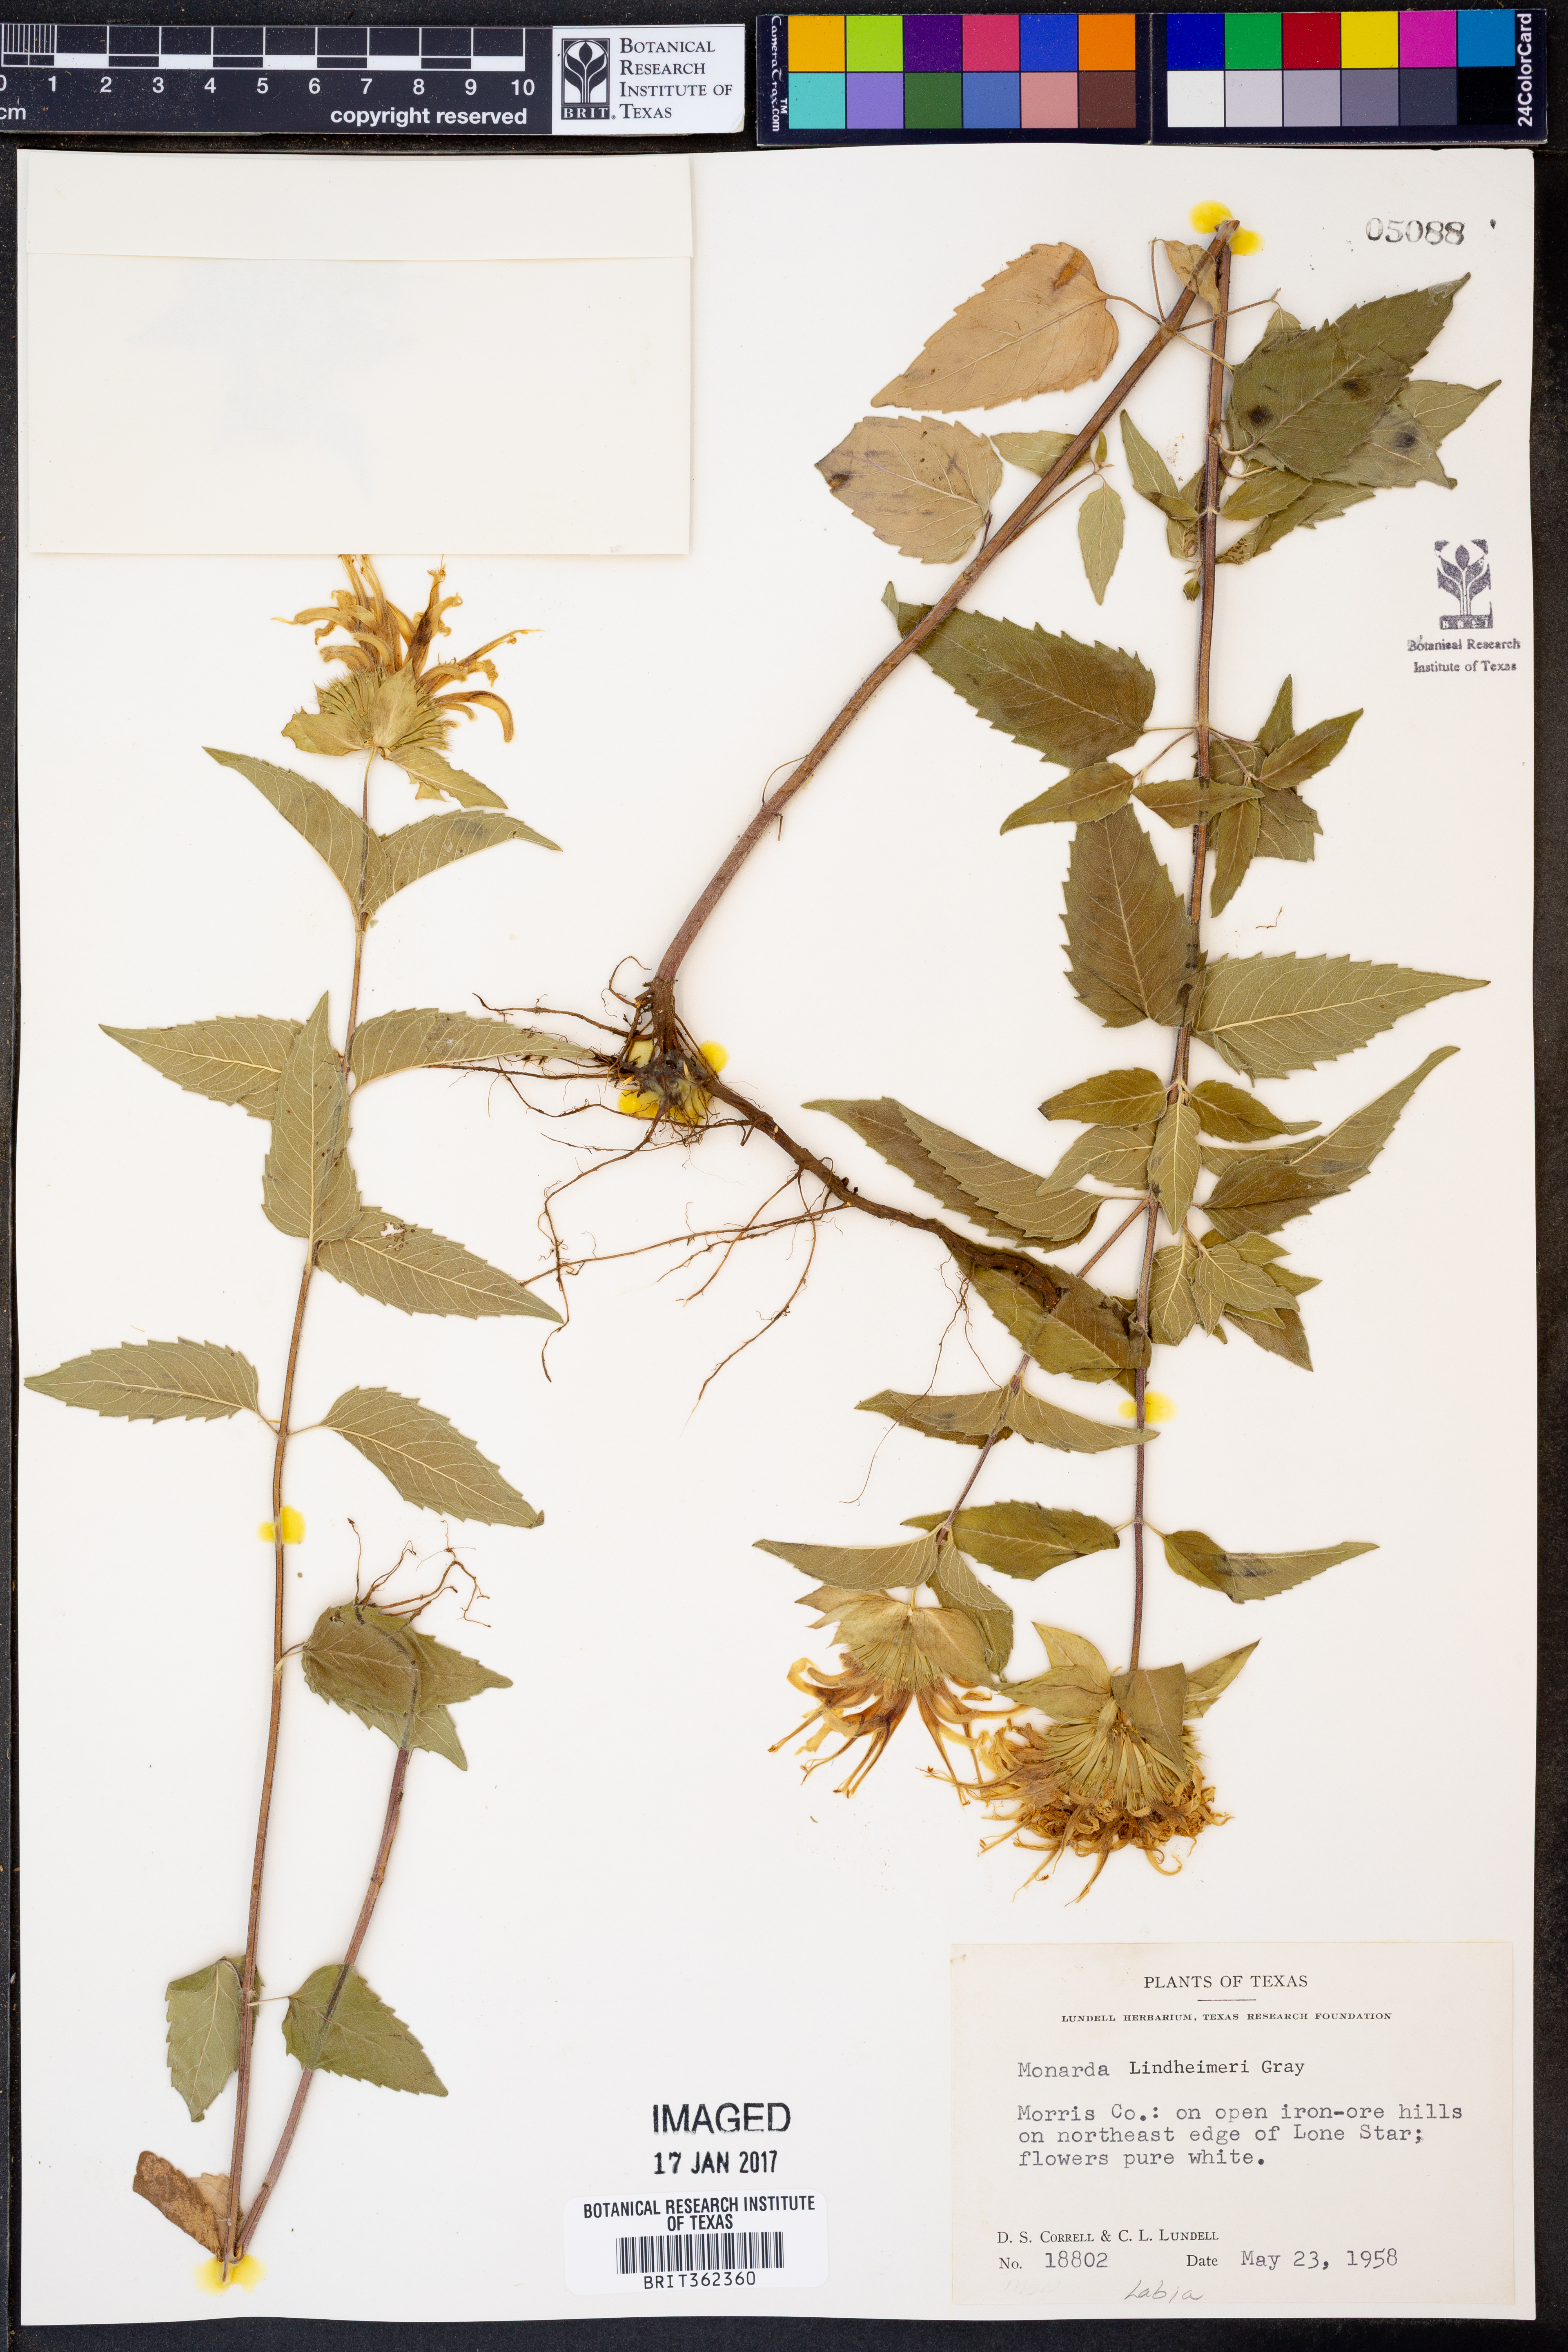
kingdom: Plantae
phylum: Tracheophyta
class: Magnoliopsida
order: Lamiales
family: Lamiaceae
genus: Monarda
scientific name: Monarda lindheimeri
